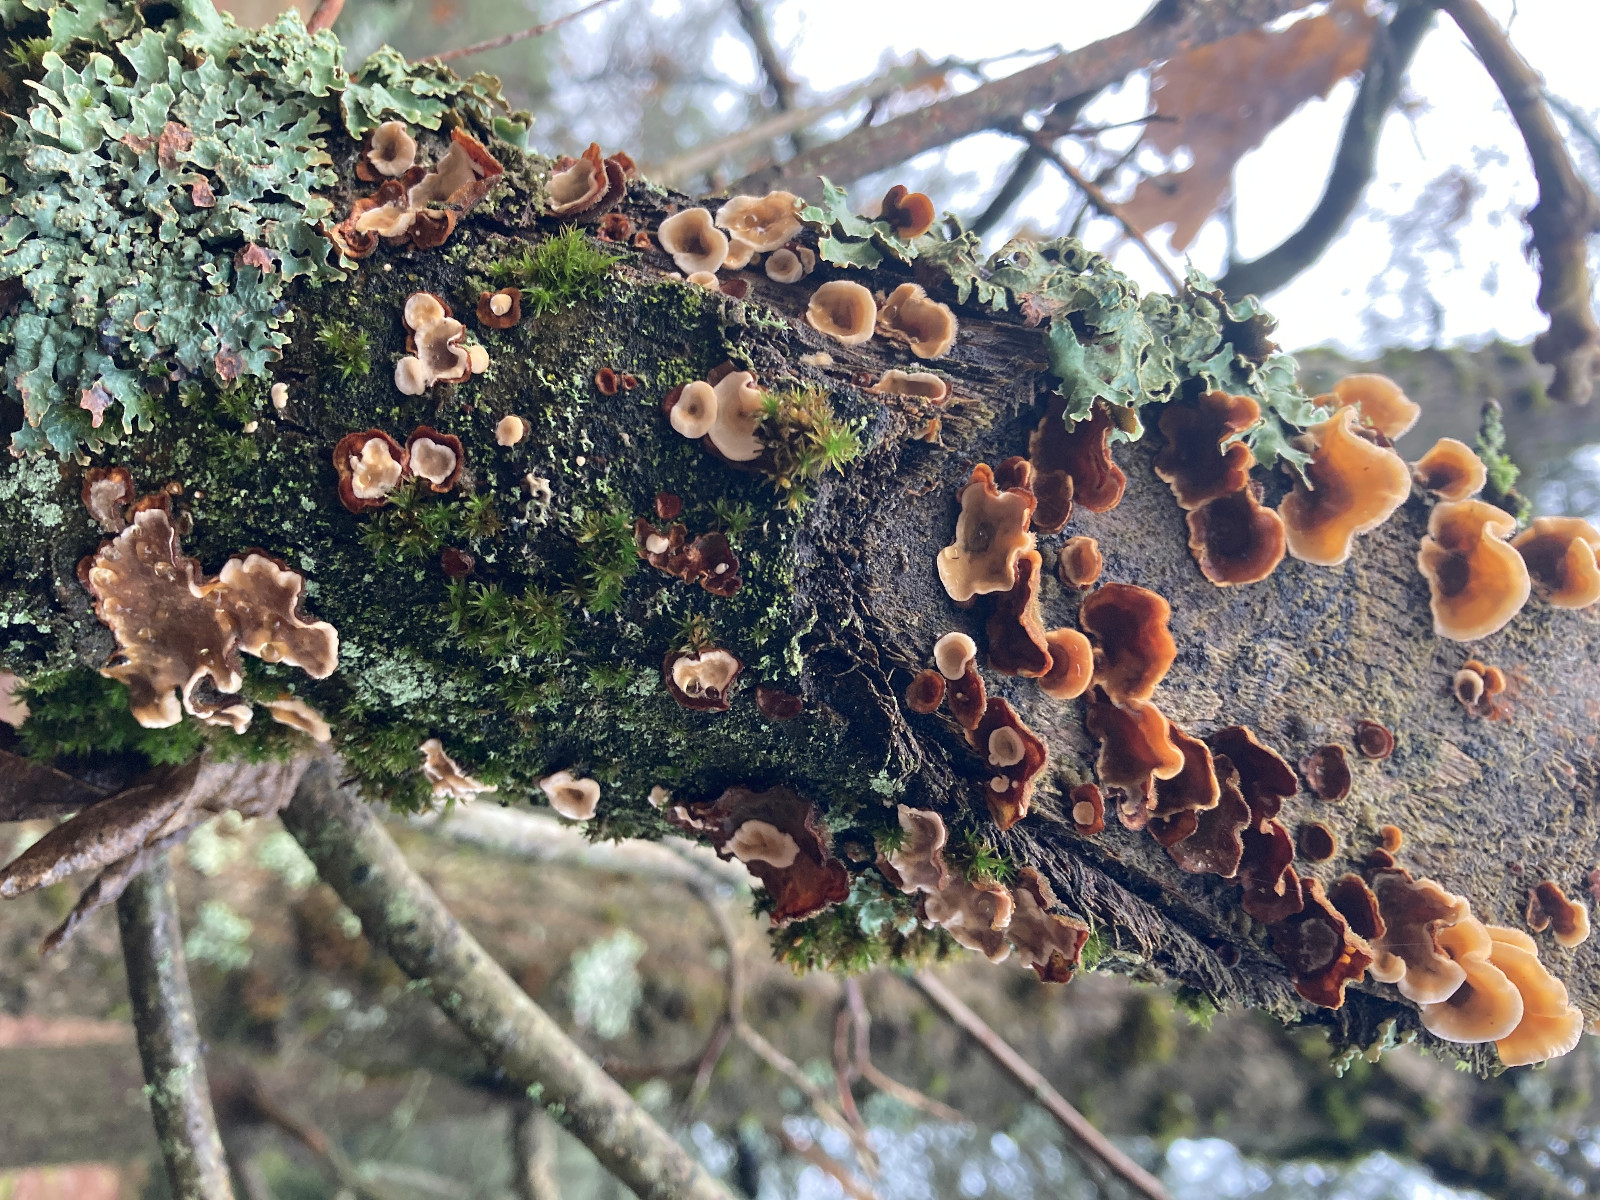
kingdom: Fungi
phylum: Basidiomycota
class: Agaricomycetes
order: Russulales
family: Stereaceae
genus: Stereum
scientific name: Stereum hirsutum
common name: håret lædersvamp
